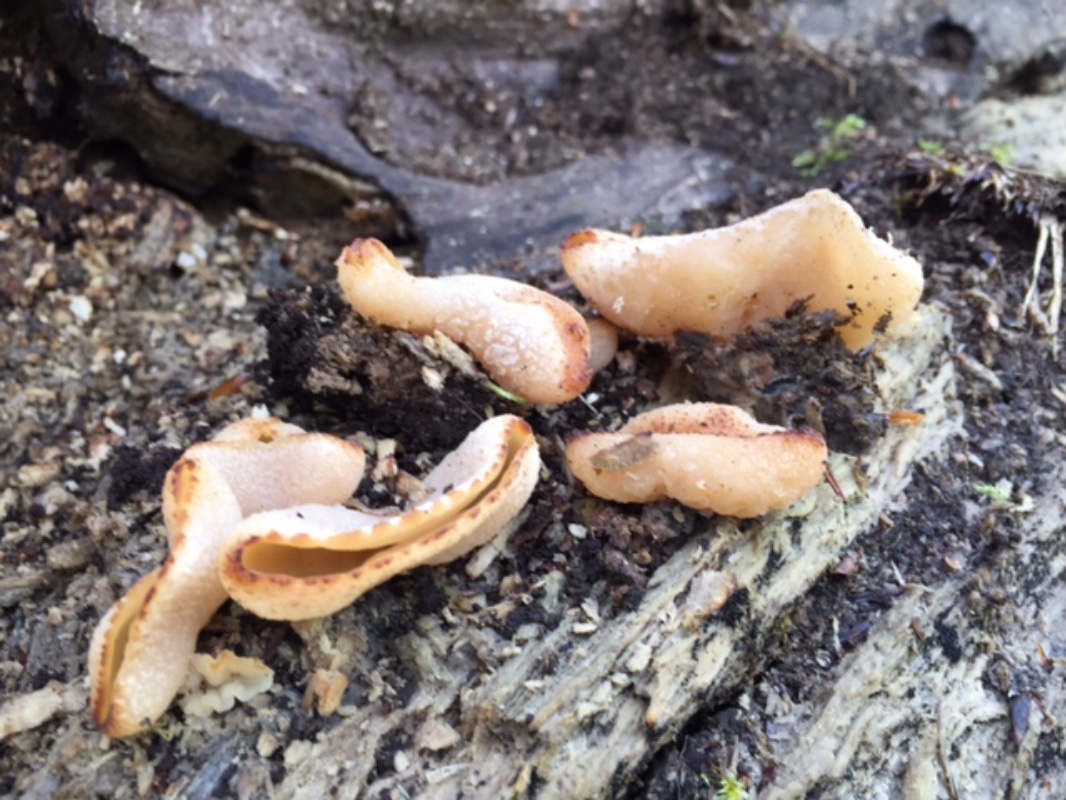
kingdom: Fungi
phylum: Ascomycota
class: Pezizomycetes
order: Pezizales
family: Pezizaceae
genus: Peziza
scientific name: Peziza varia
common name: Ved-bægersvamp
